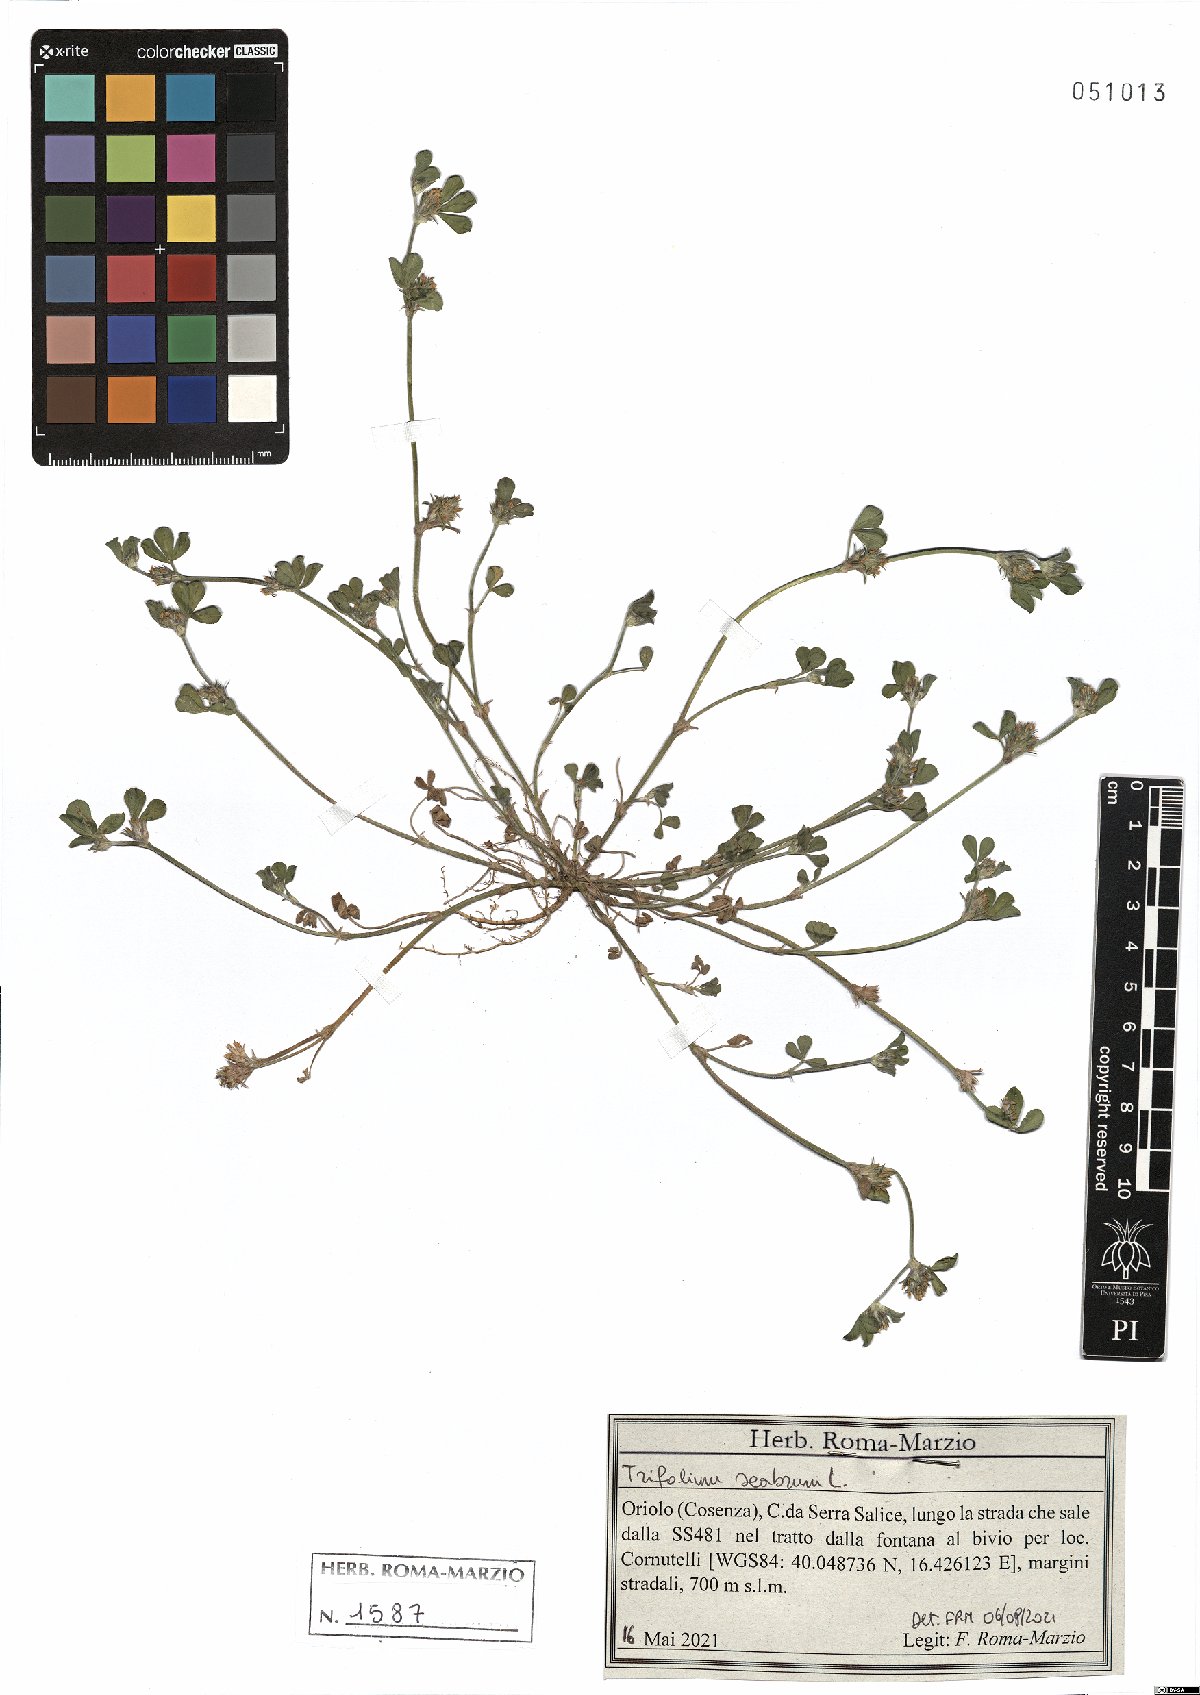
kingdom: Plantae
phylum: Tracheophyta
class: Magnoliopsida
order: Fabales
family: Fabaceae
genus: Trifolium
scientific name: Trifolium scabrum
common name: Rough clover
